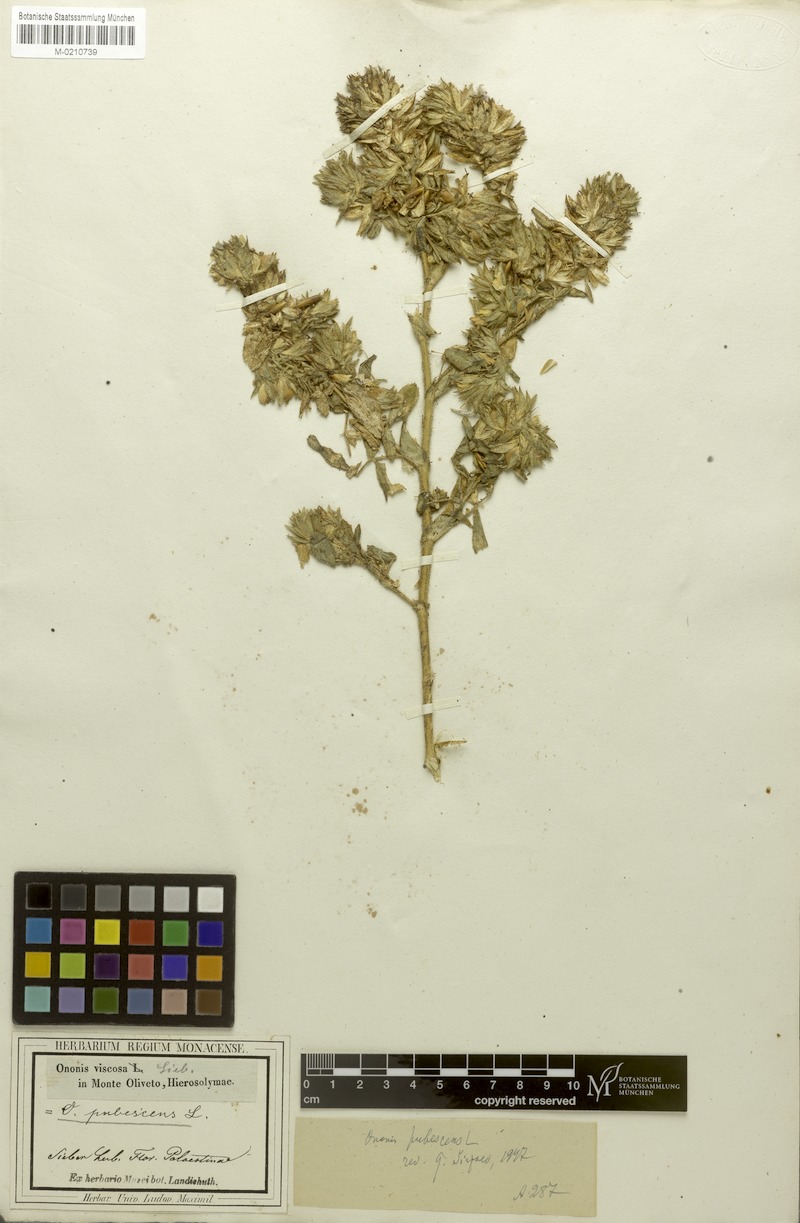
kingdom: Plantae
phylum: Tracheophyta
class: Magnoliopsida
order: Fabales
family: Fabaceae
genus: Ononis
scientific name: Ononis pubescens
